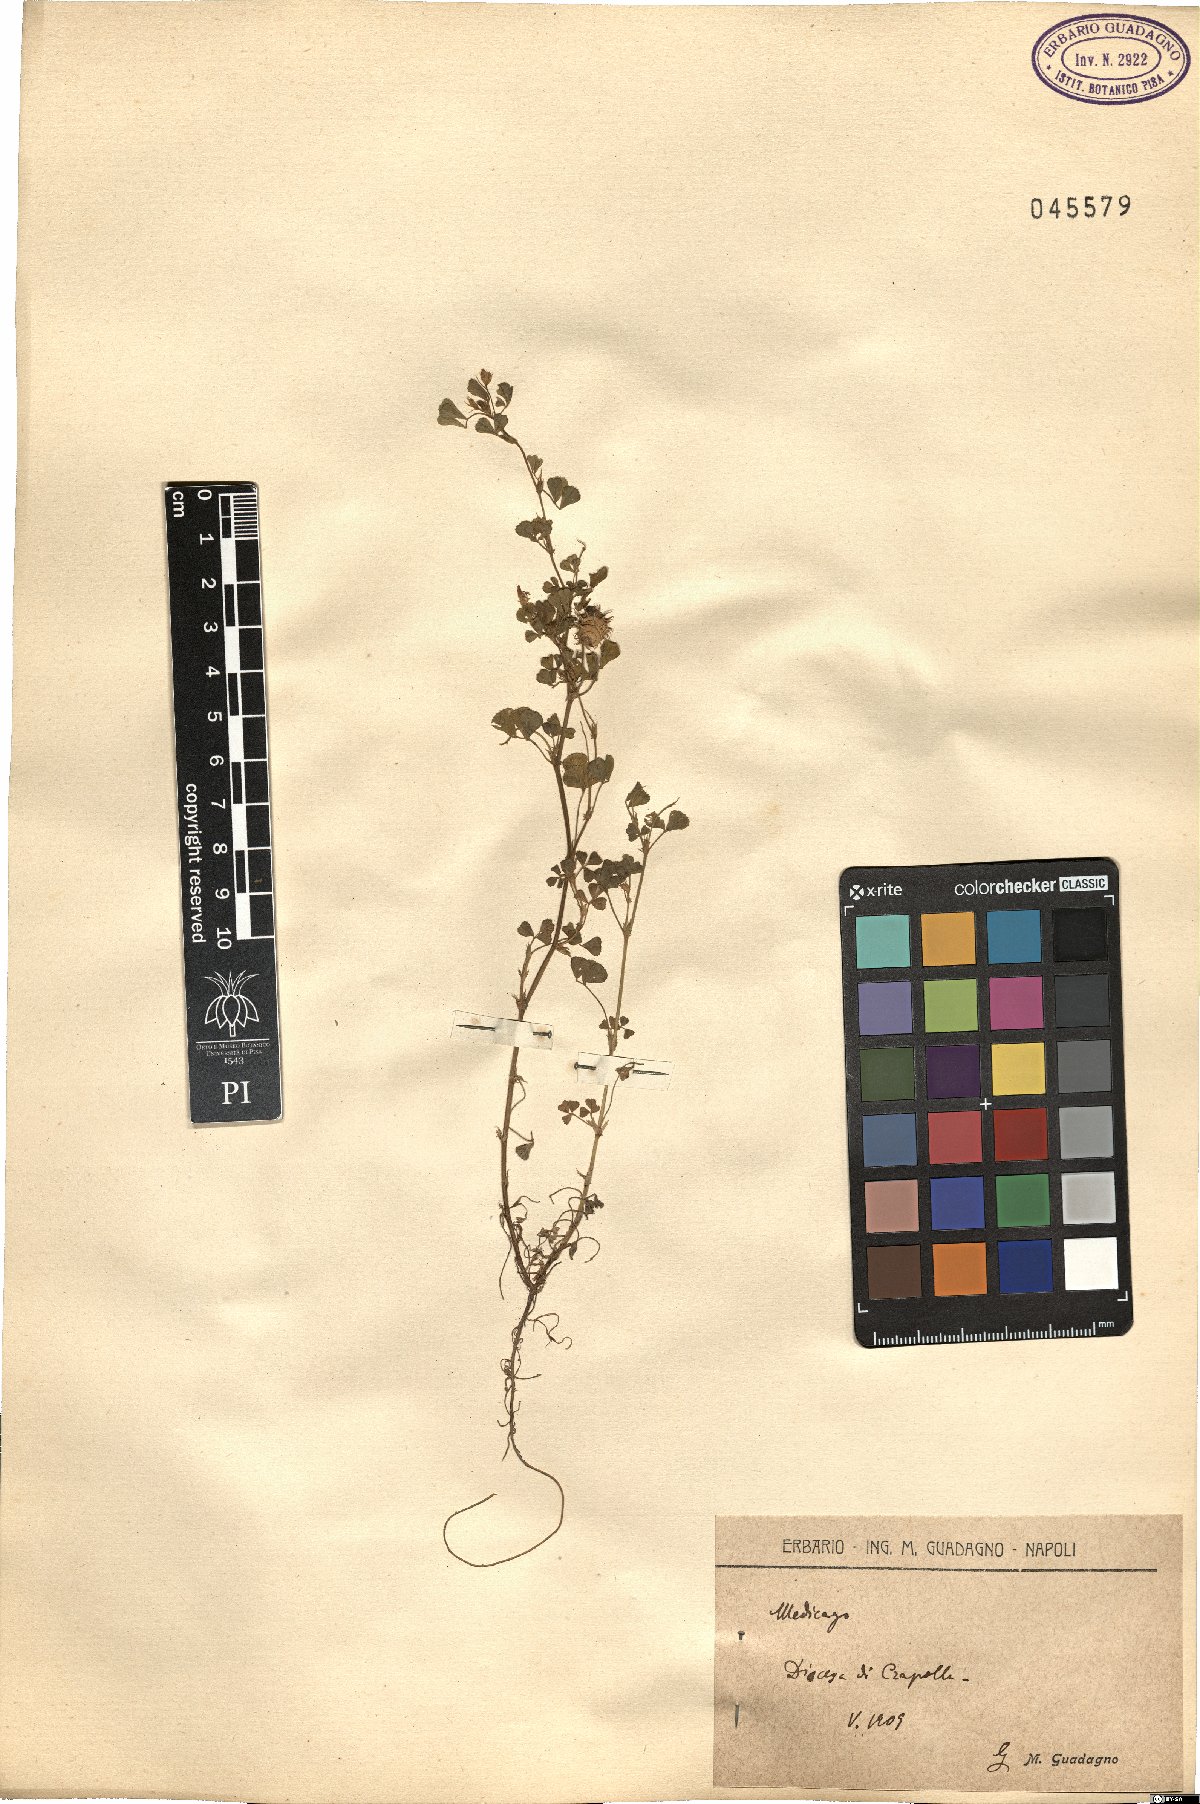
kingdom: Plantae
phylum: Tracheophyta
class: Magnoliopsida
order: Fabales
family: Fabaceae
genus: Medicago
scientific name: Medicago
